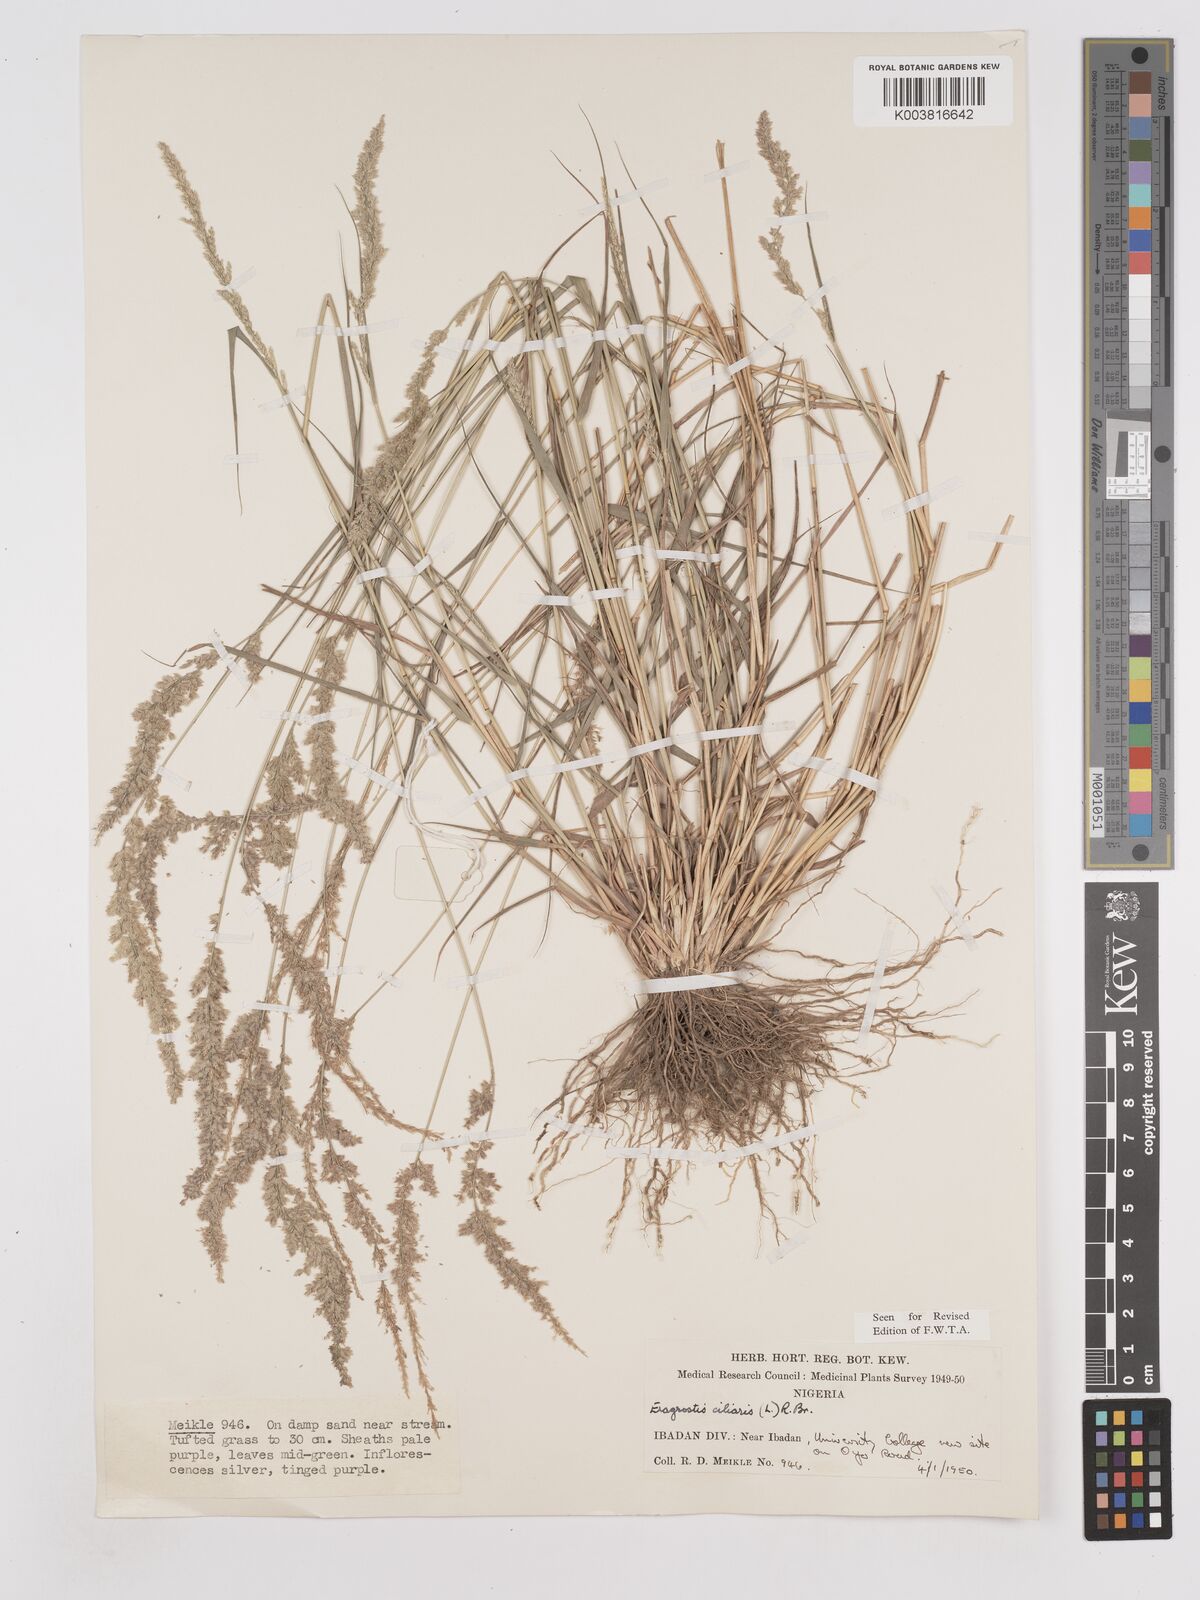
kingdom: Plantae
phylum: Tracheophyta
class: Liliopsida
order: Poales
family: Poaceae
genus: Eragrostis
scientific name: Eragrostis ciliaris
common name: Gophertail lovegrass
